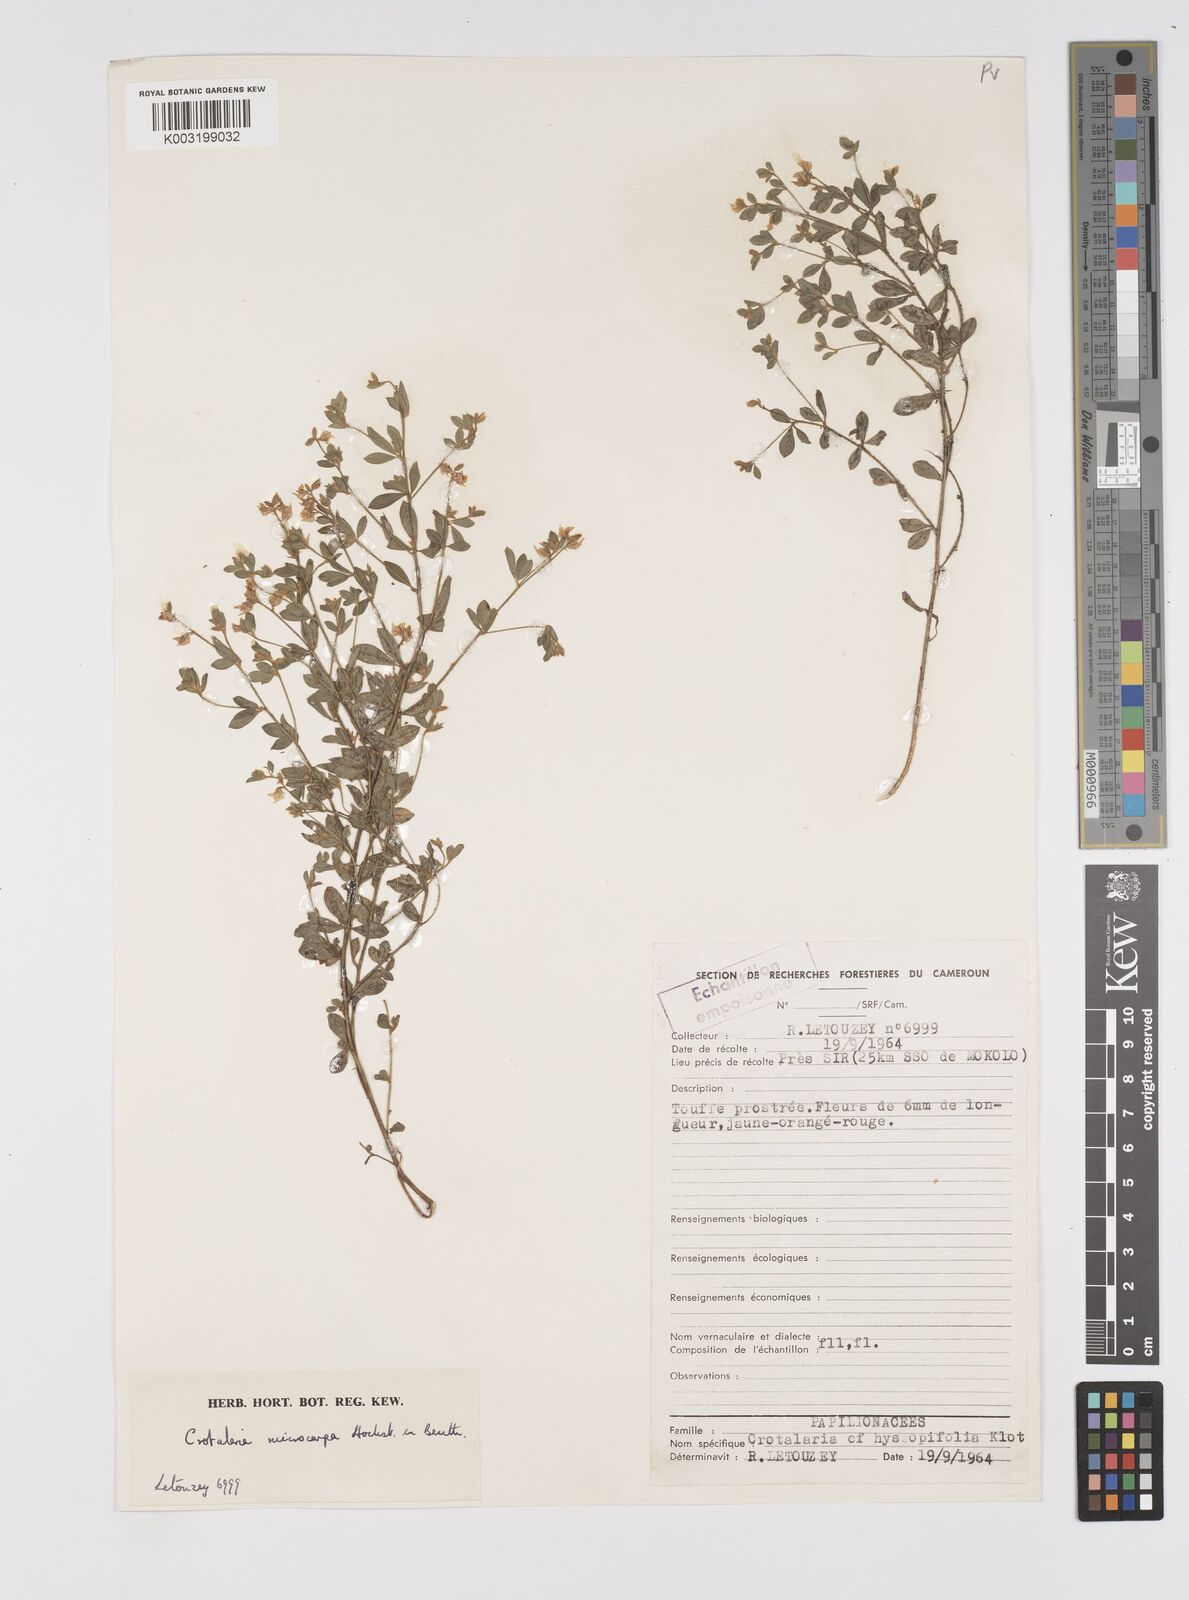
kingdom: Plantae
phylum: Tracheophyta
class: Magnoliopsida
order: Fabales
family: Fabaceae
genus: Crotalaria
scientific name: Crotalaria microcarpa
